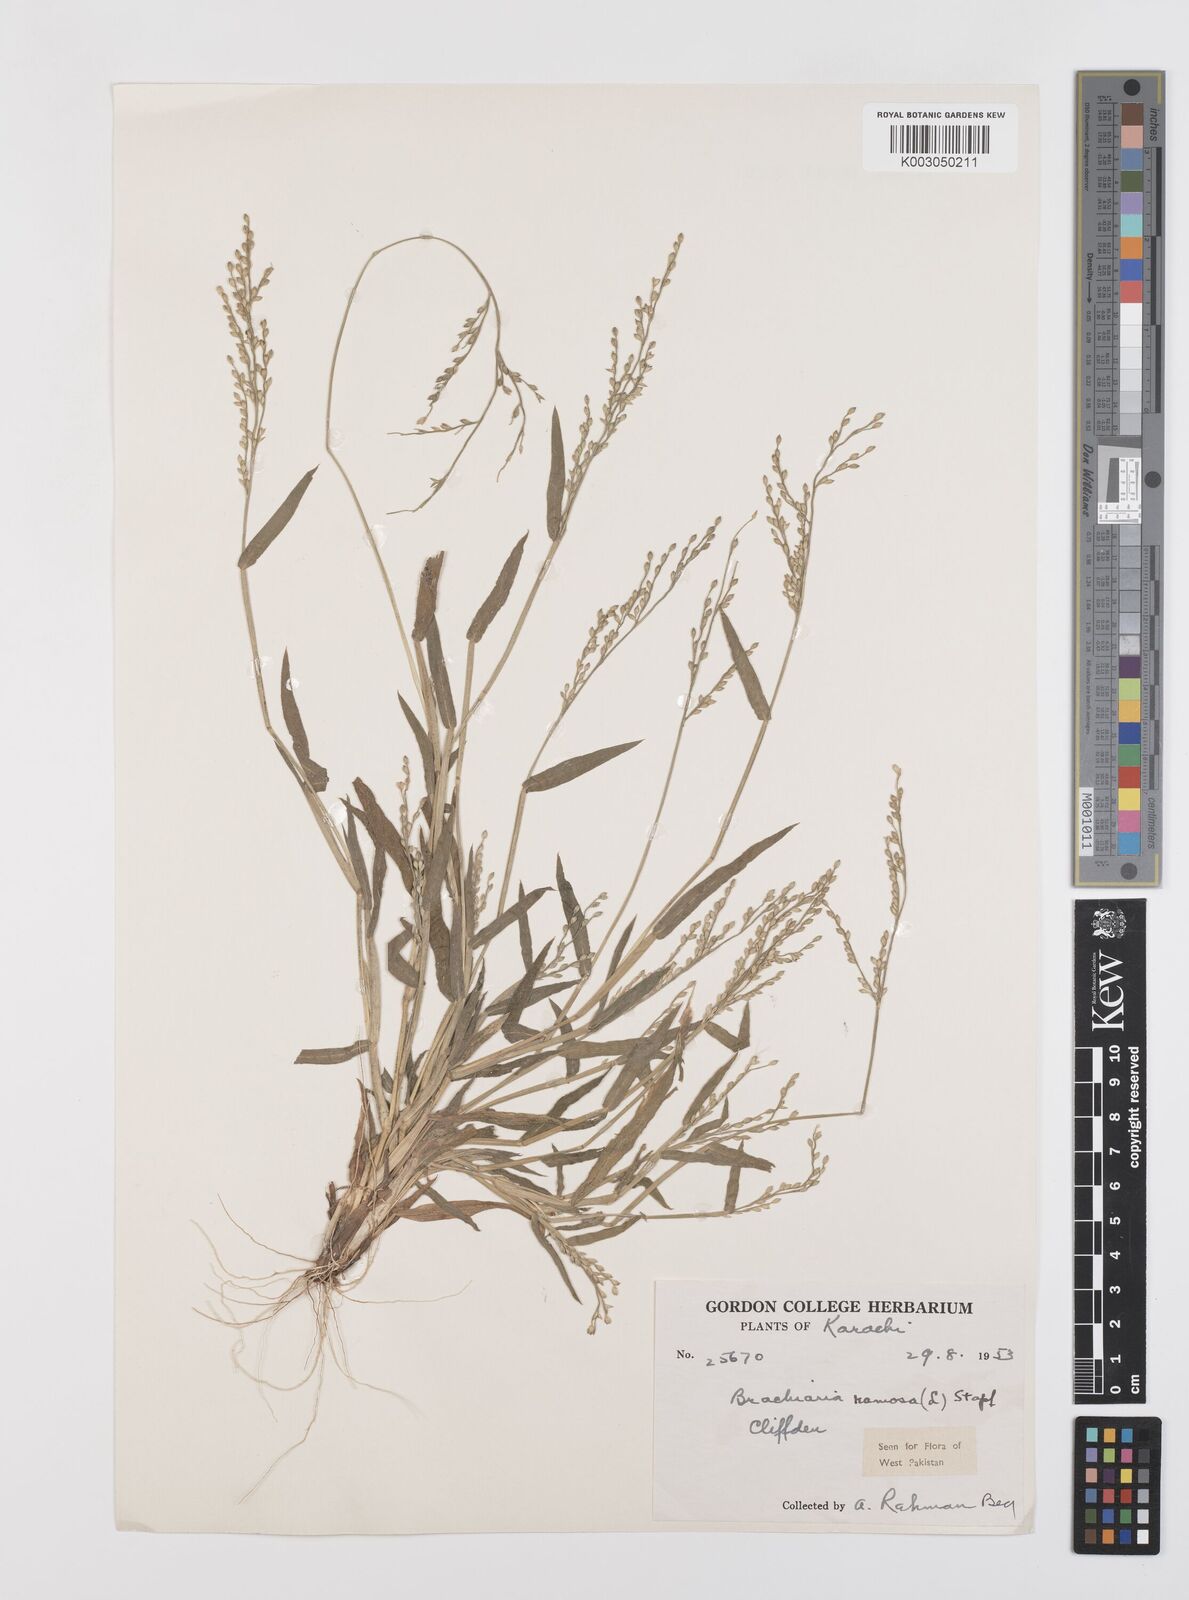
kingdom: Plantae
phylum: Tracheophyta
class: Liliopsida
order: Poales
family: Poaceae
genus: Urochloa
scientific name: Urochloa ramosa
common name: Browntop millet
